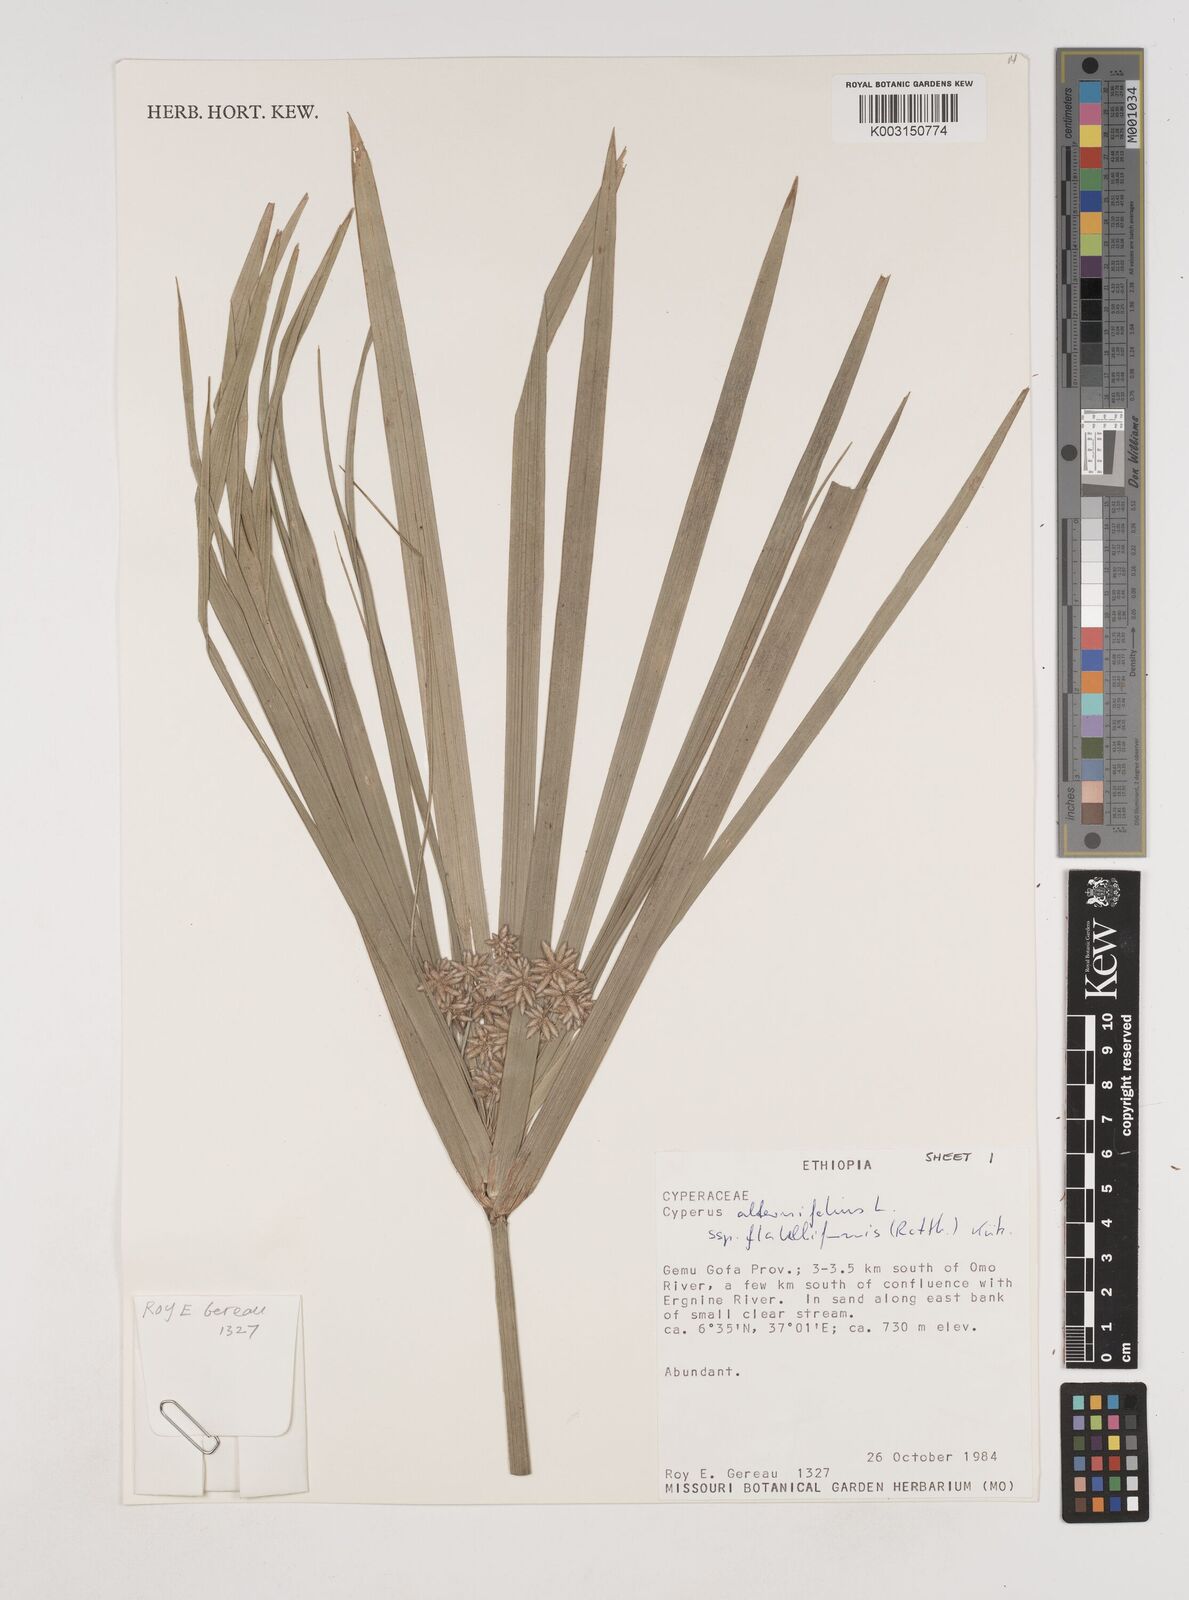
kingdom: Plantae
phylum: Tracheophyta
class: Liliopsida
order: Poales
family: Cyperaceae
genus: Cyperus
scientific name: Cyperus alternifolius
